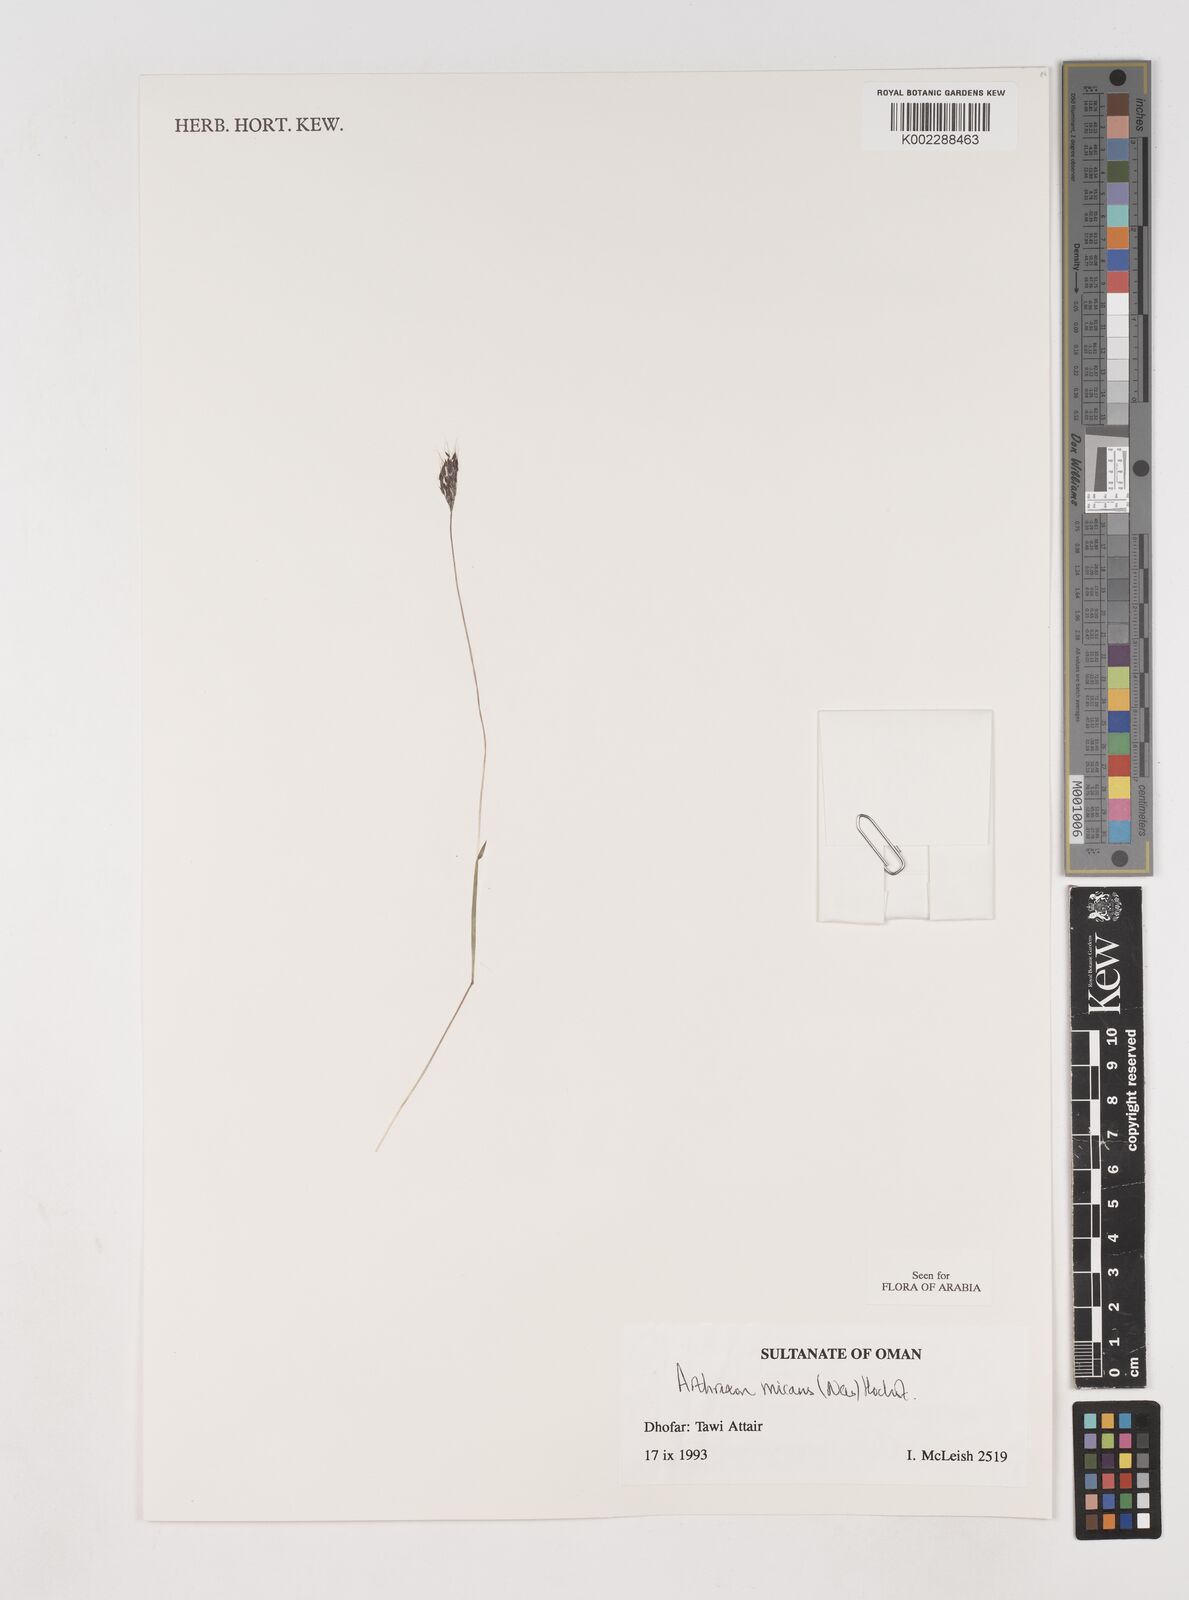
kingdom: Plantae
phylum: Tracheophyta
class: Liliopsida
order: Poales
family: Poaceae
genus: Arthraxon
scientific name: Arthraxon hispidus
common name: Small carpgrass
